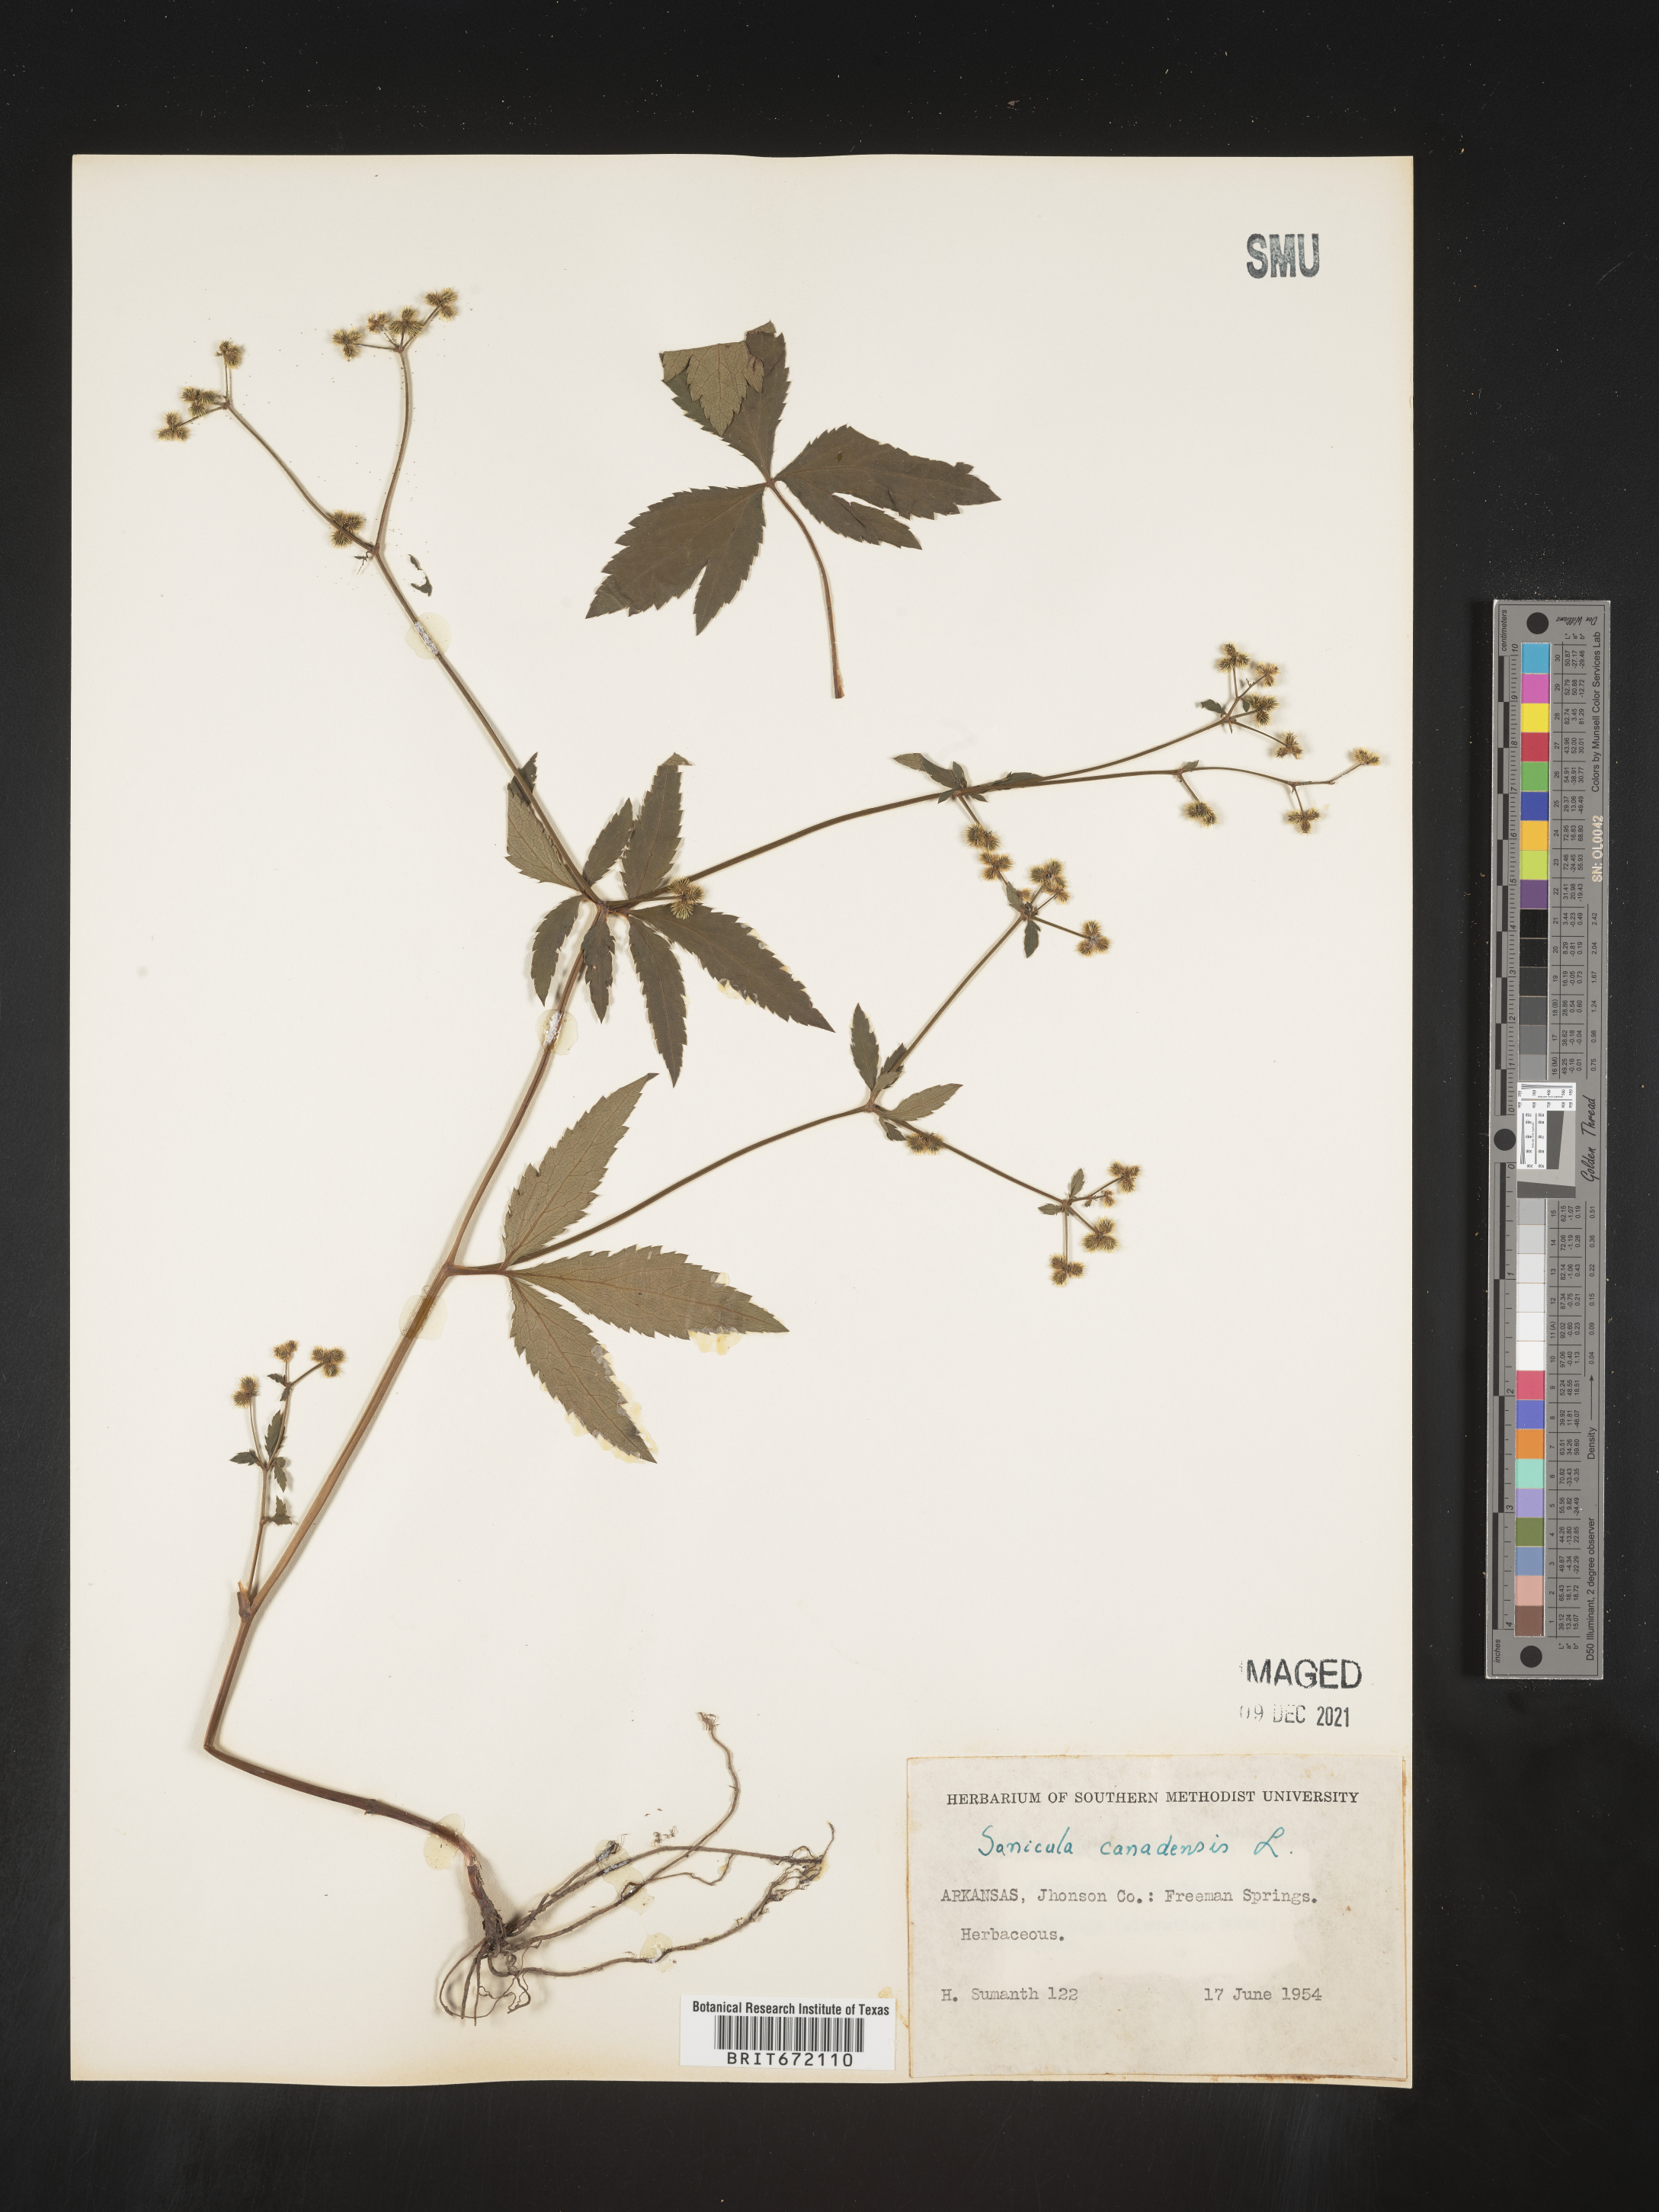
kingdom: Plantae
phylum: Tracheophyta
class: Magnoliopsida
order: Apiales
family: Apiaceae
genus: Sanicula
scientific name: Sanicula canadensis
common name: Canada sanicle
